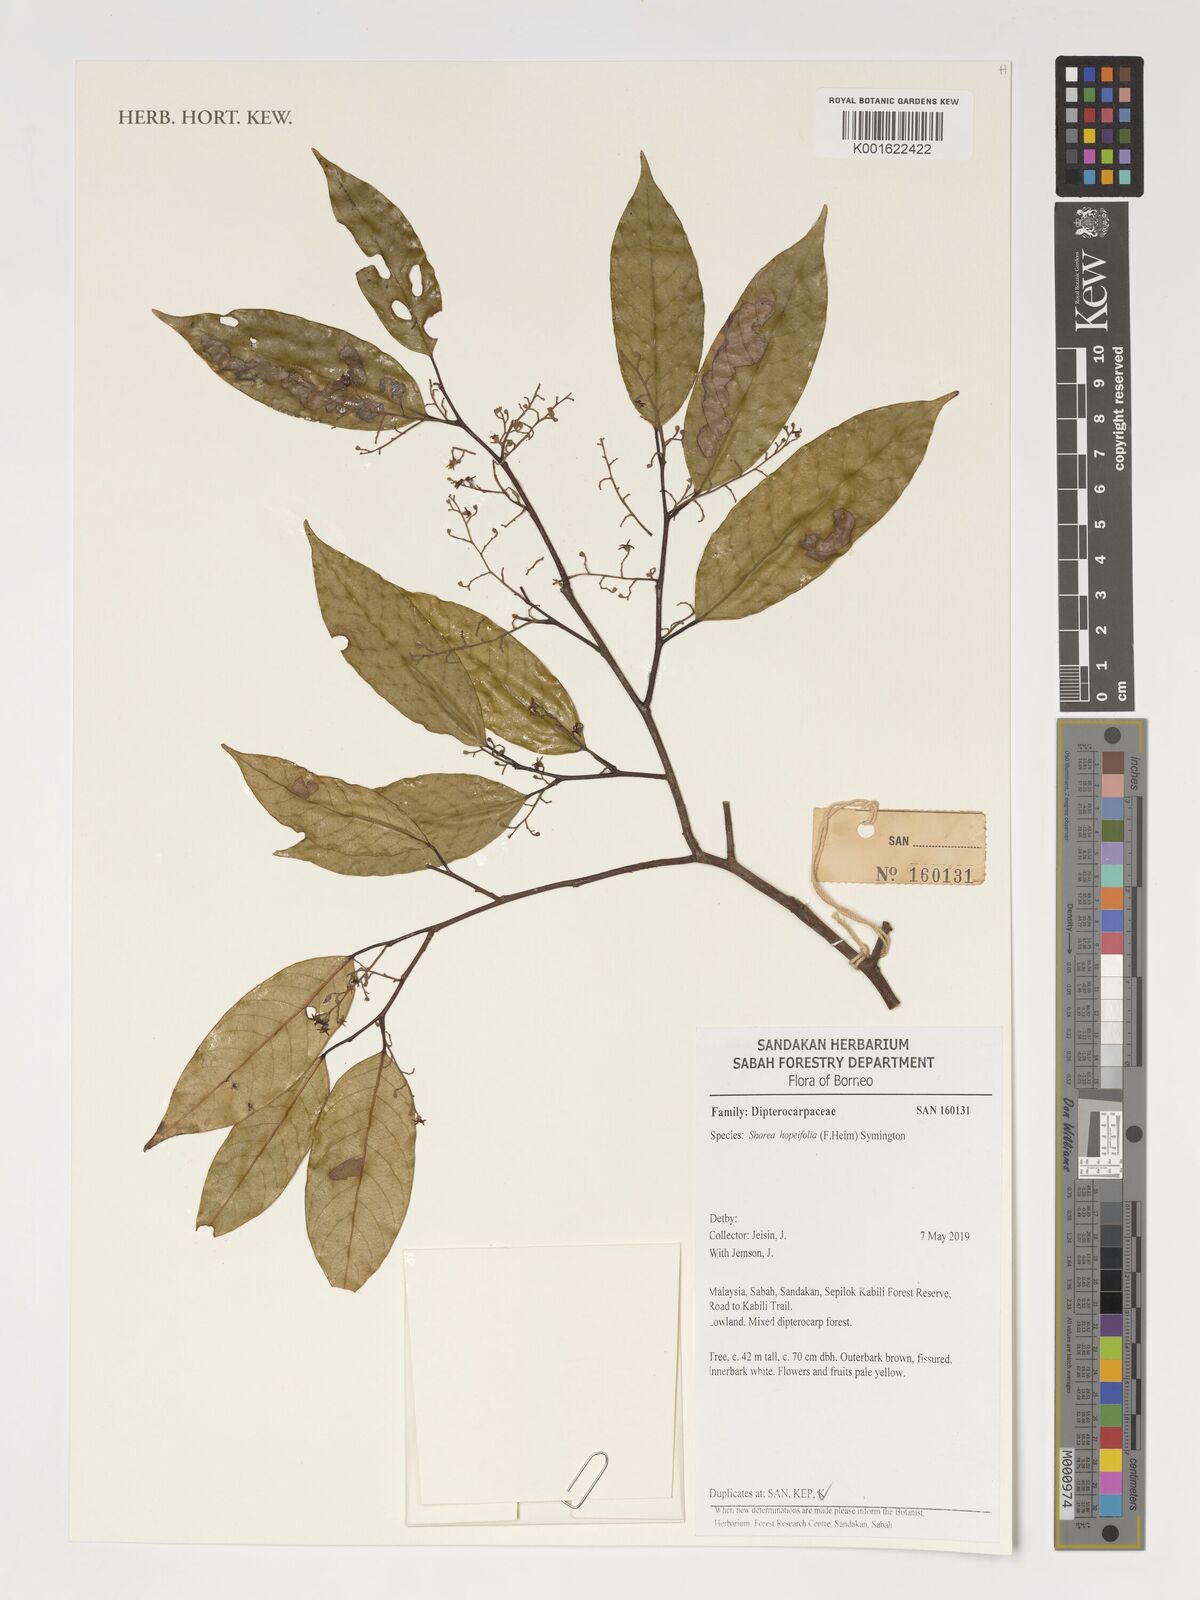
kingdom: Plantae
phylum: Tracheophyta
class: Magnoliopsida
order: Malvales
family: Dipterocarpaceae
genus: Shorea
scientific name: Shorea hopeifolia
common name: Yellow meranti
